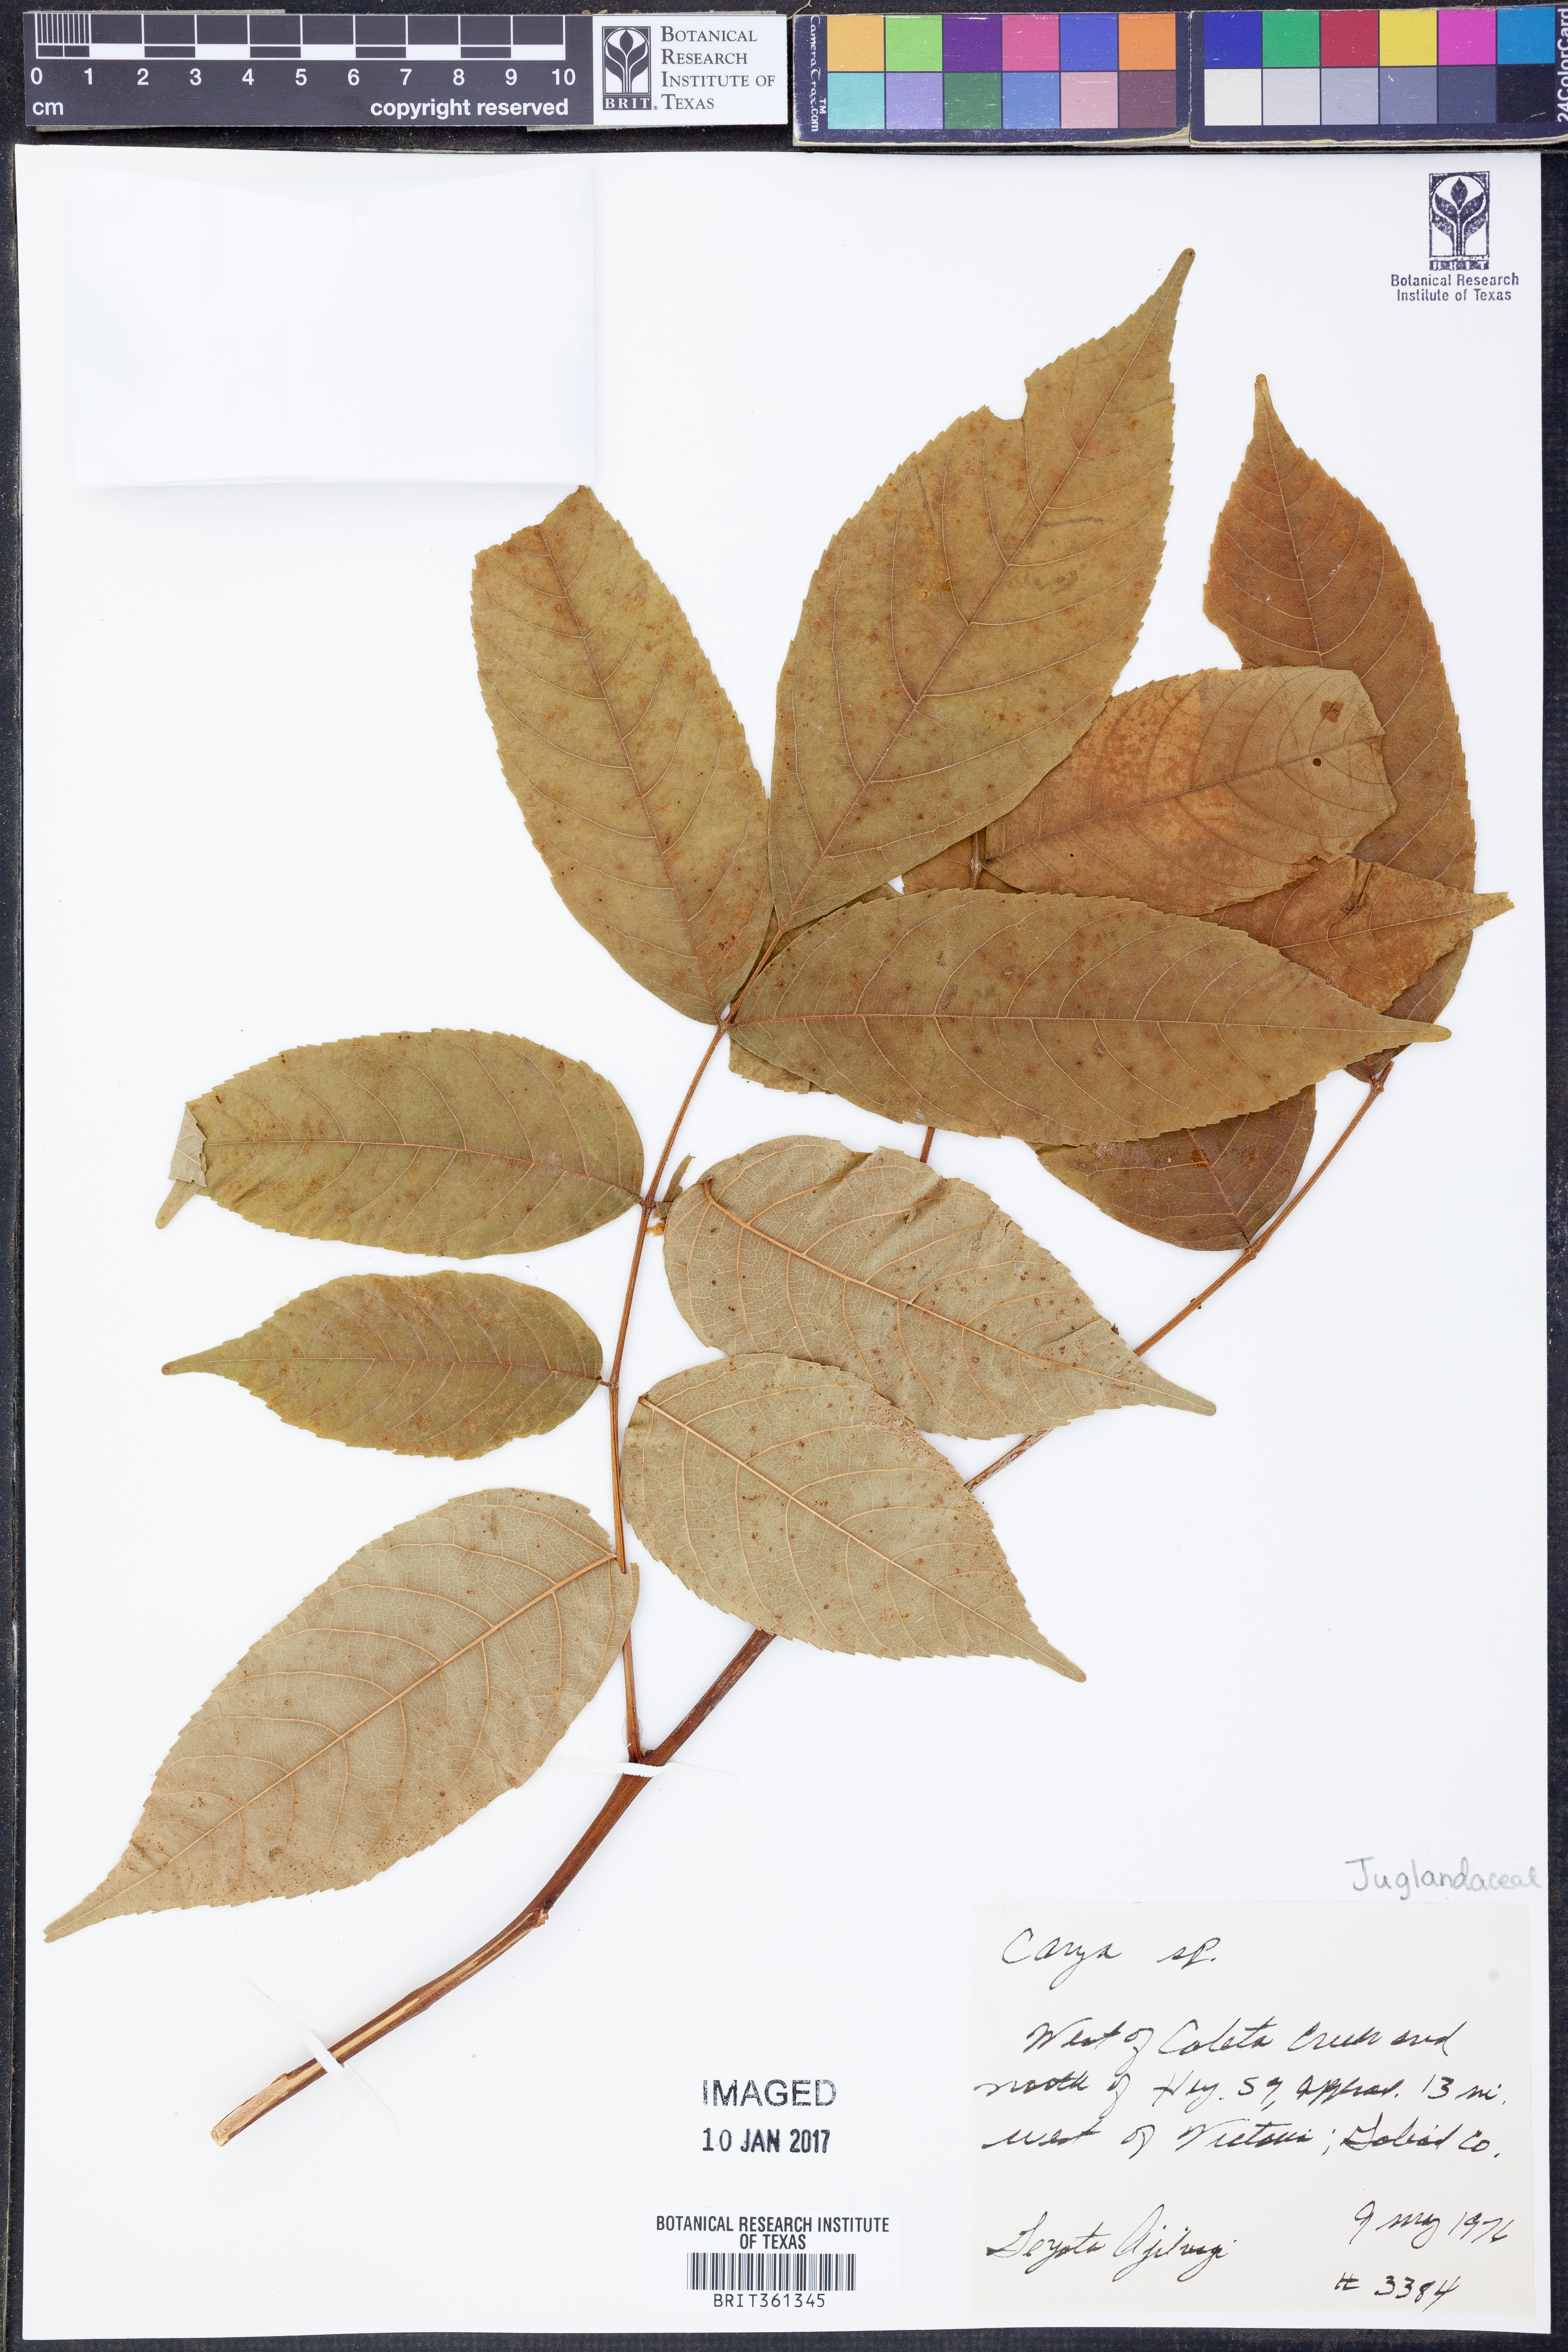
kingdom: Plantae
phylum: Tracheophyta
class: Magnoliopsida
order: Fagales
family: Juglandaceae
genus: Carya
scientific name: Carya
